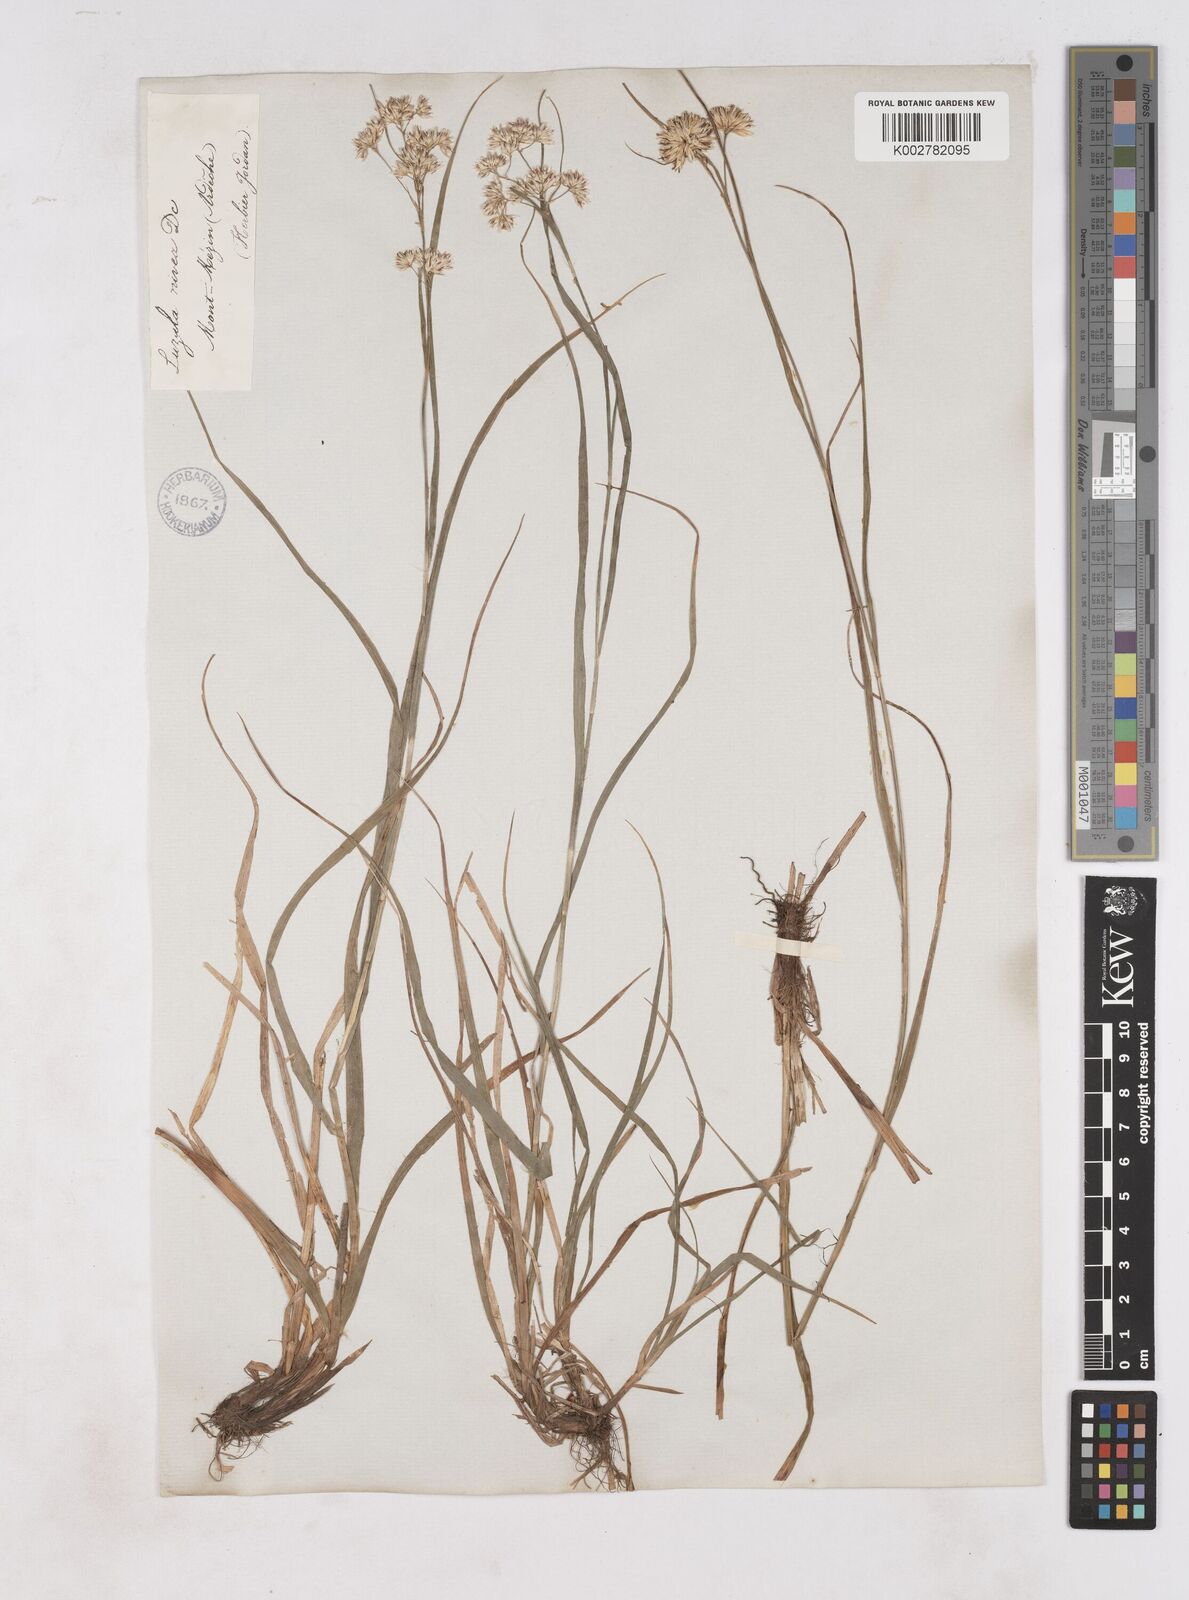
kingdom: Plantae
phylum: Tracheophyta
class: Liliopsida
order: Poales
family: Juncaceae
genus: Luzula
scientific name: Luzula nivea
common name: Snow-white wood-rush
